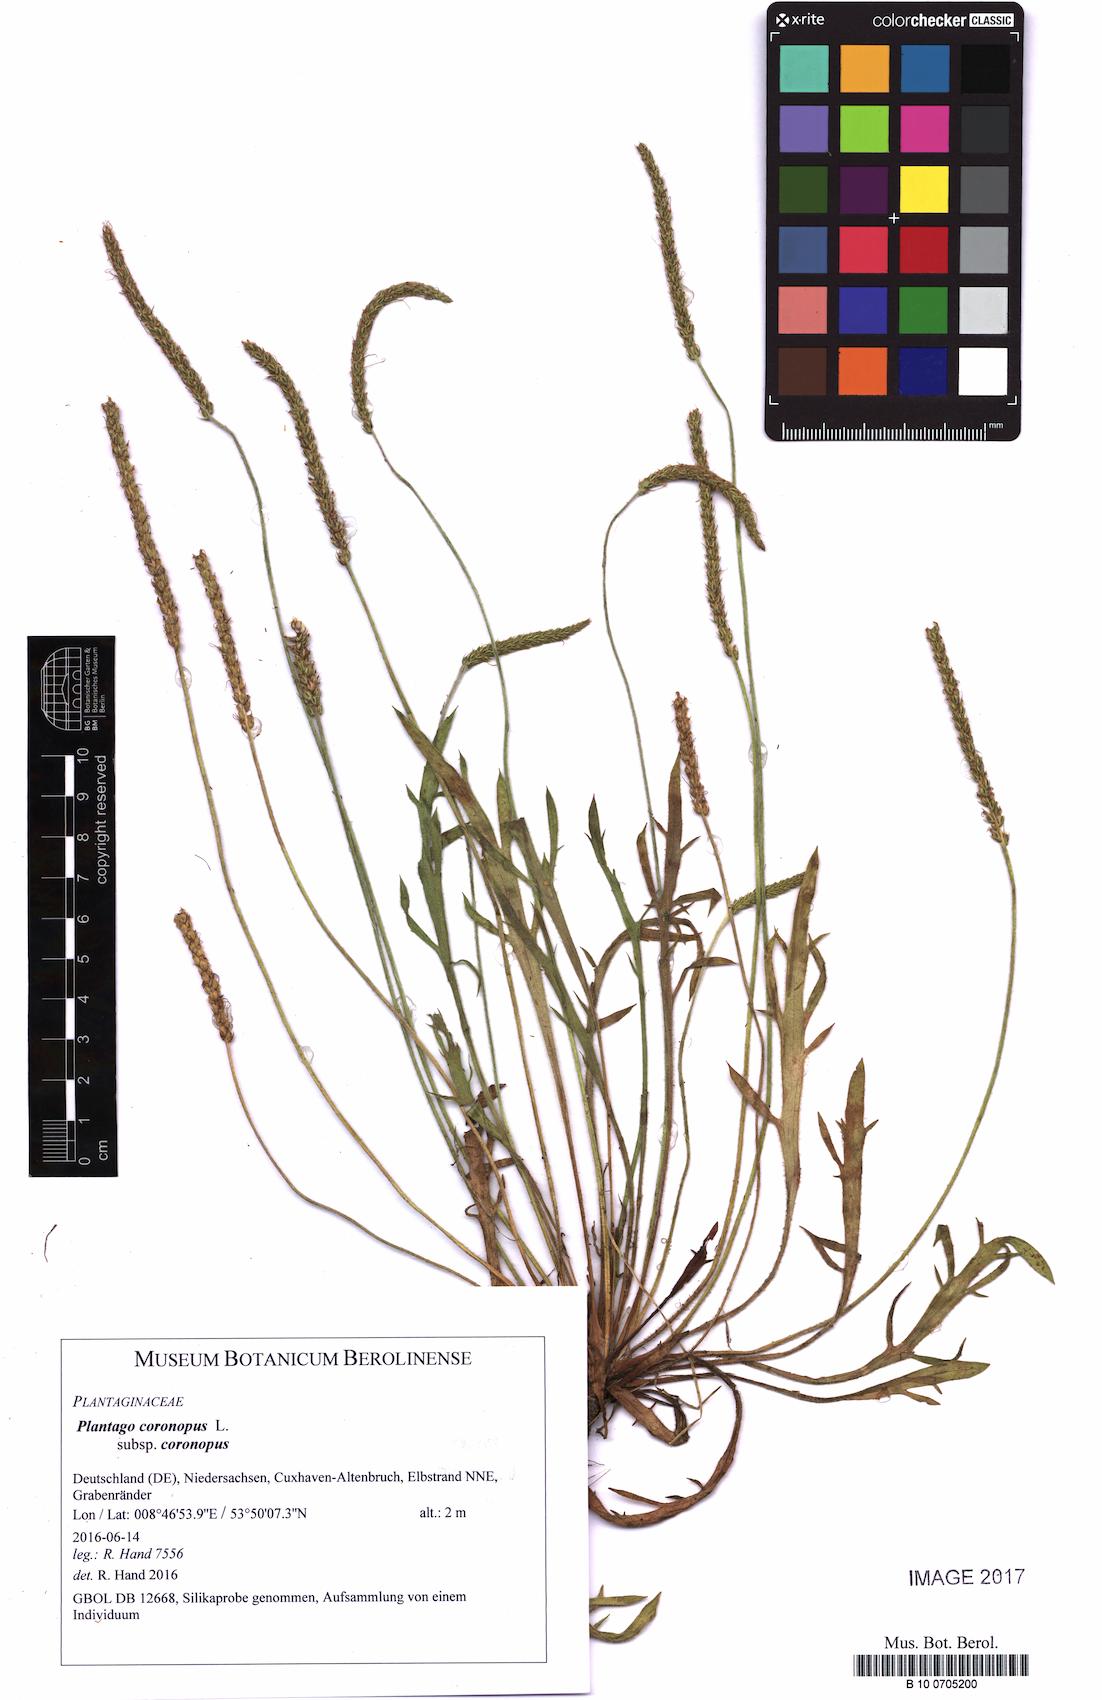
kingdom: Plantae
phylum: Tracheophyta
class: Magnoliopsida
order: Lamiales
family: Plantaginaceae
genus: Plantago
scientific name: Plantago coronopus
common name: Buck's-horn plantain
